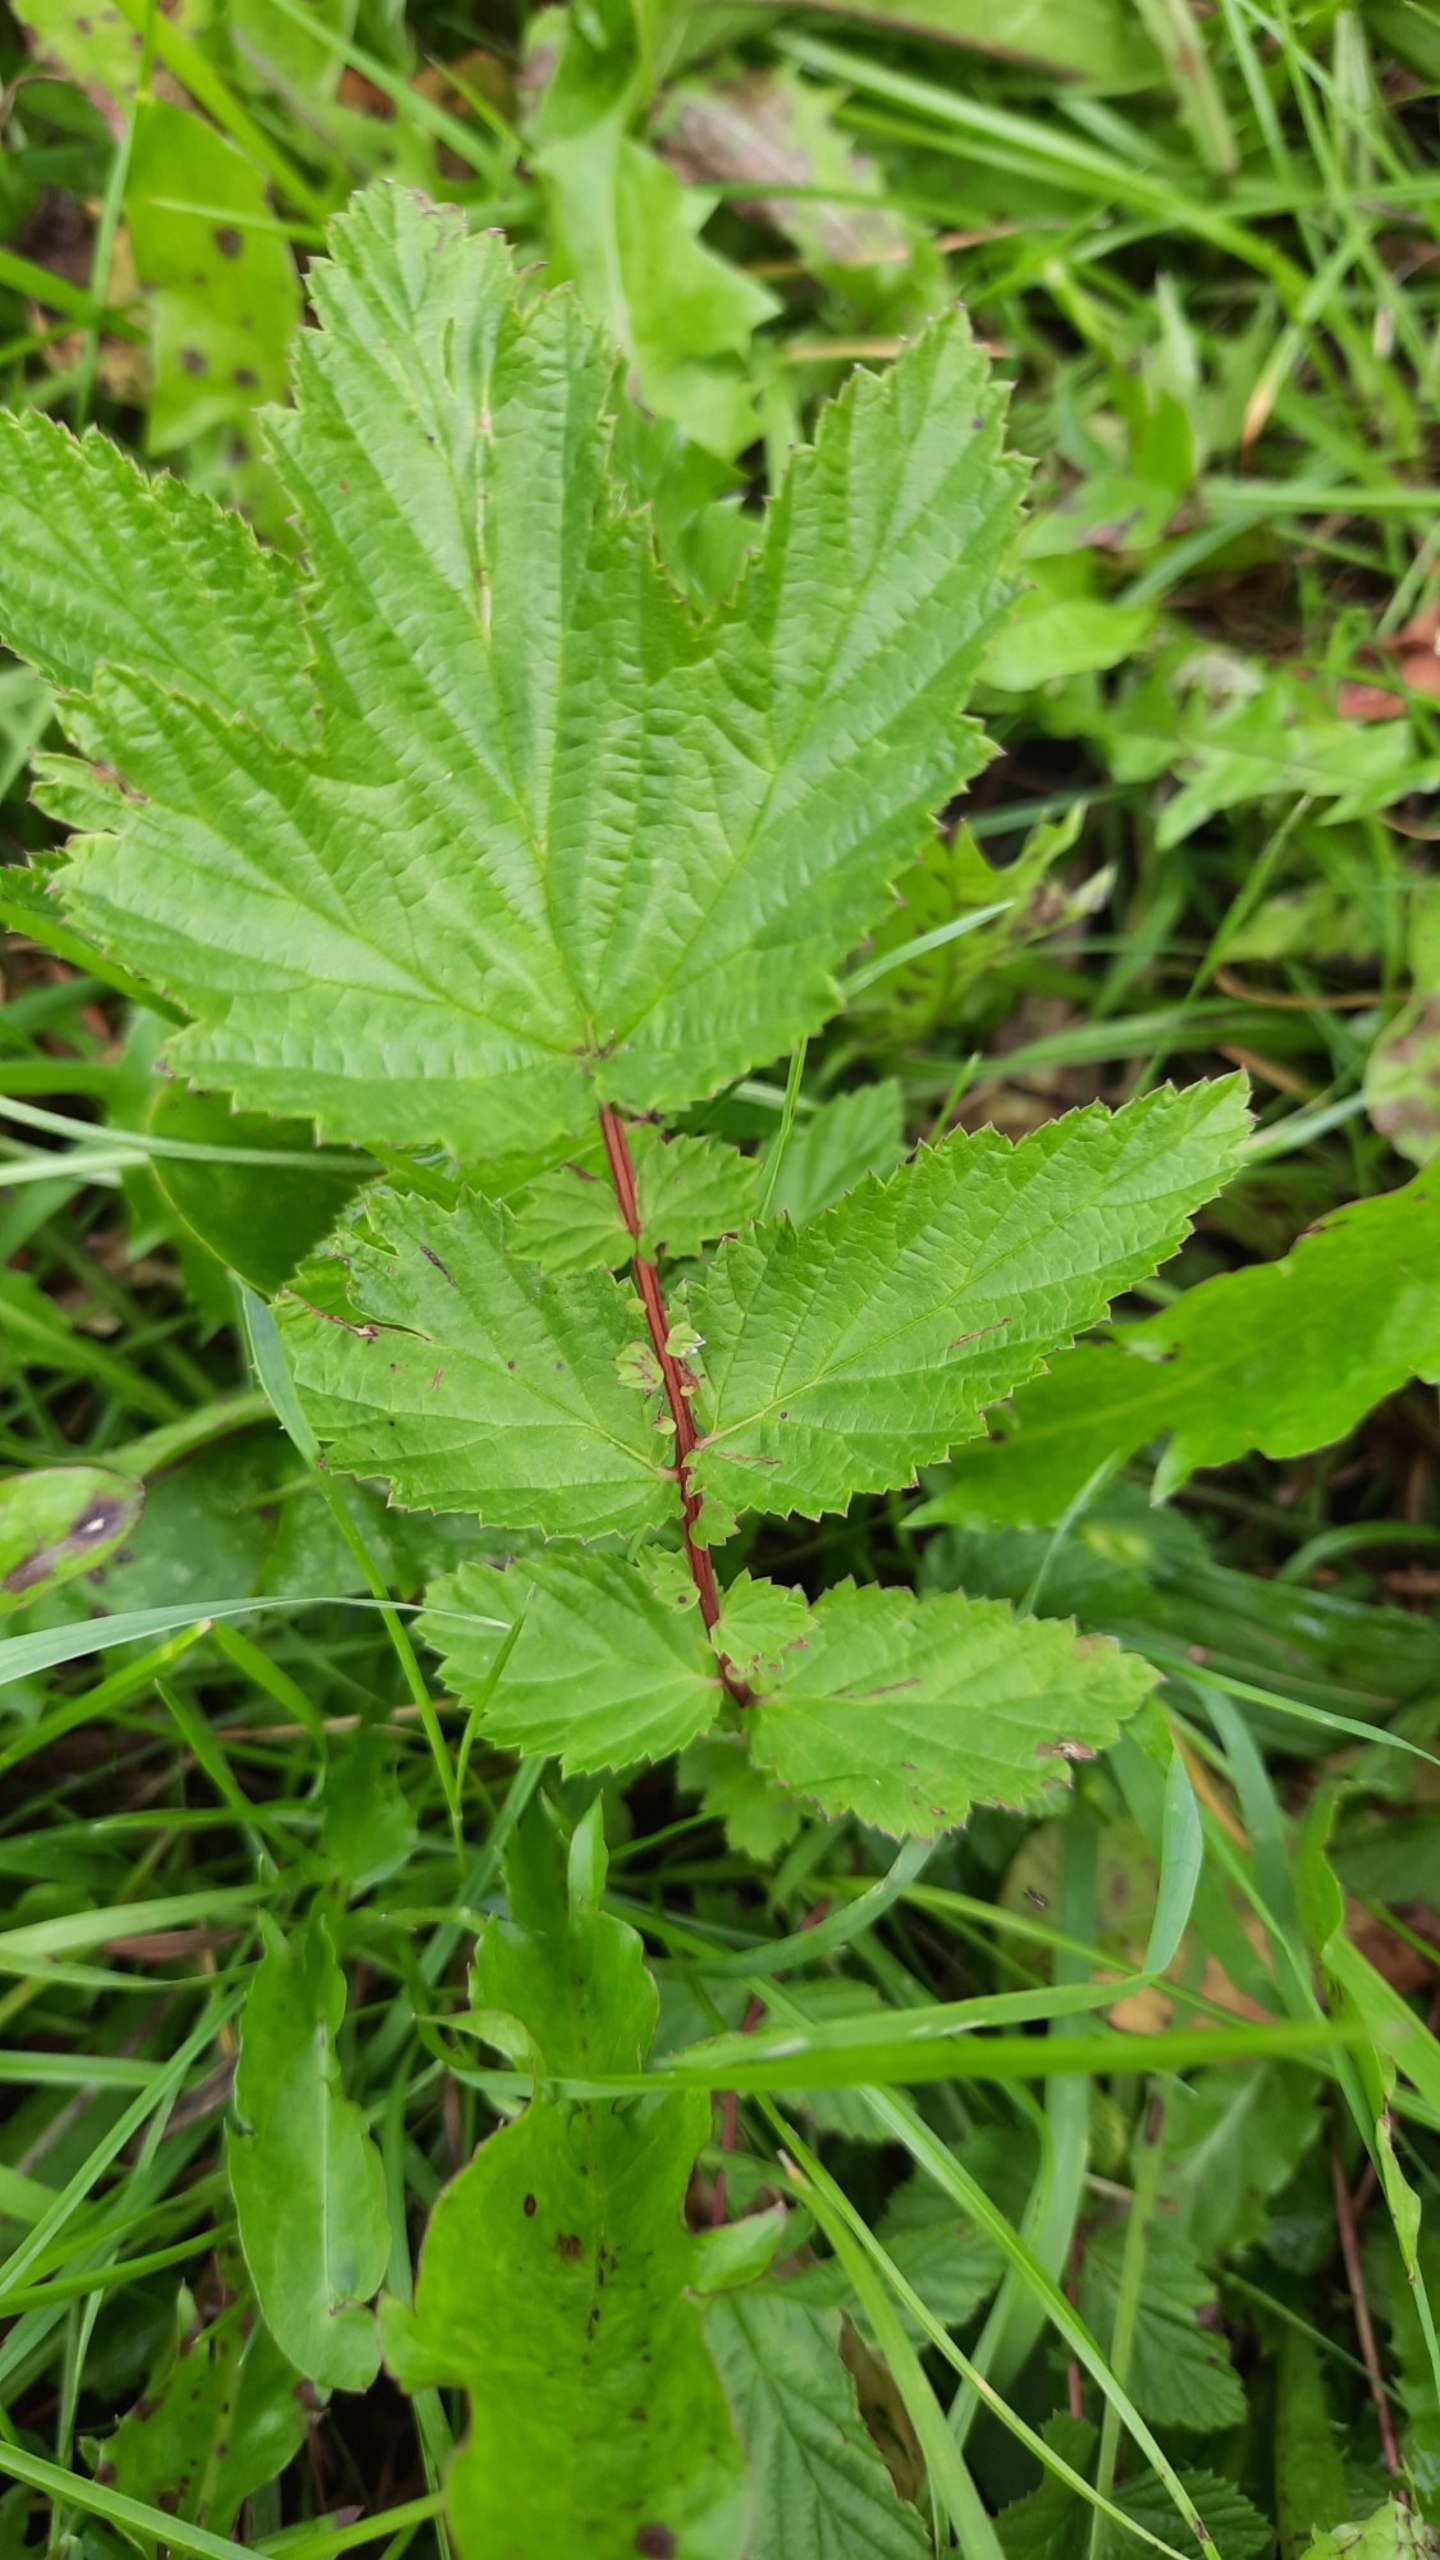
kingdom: Plantae
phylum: Tracheophyta
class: Magnoliopsida
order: Rosales
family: Rosaceae
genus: Filipendula
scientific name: Filipendula ulmaria
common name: Almindelig mjødurt
